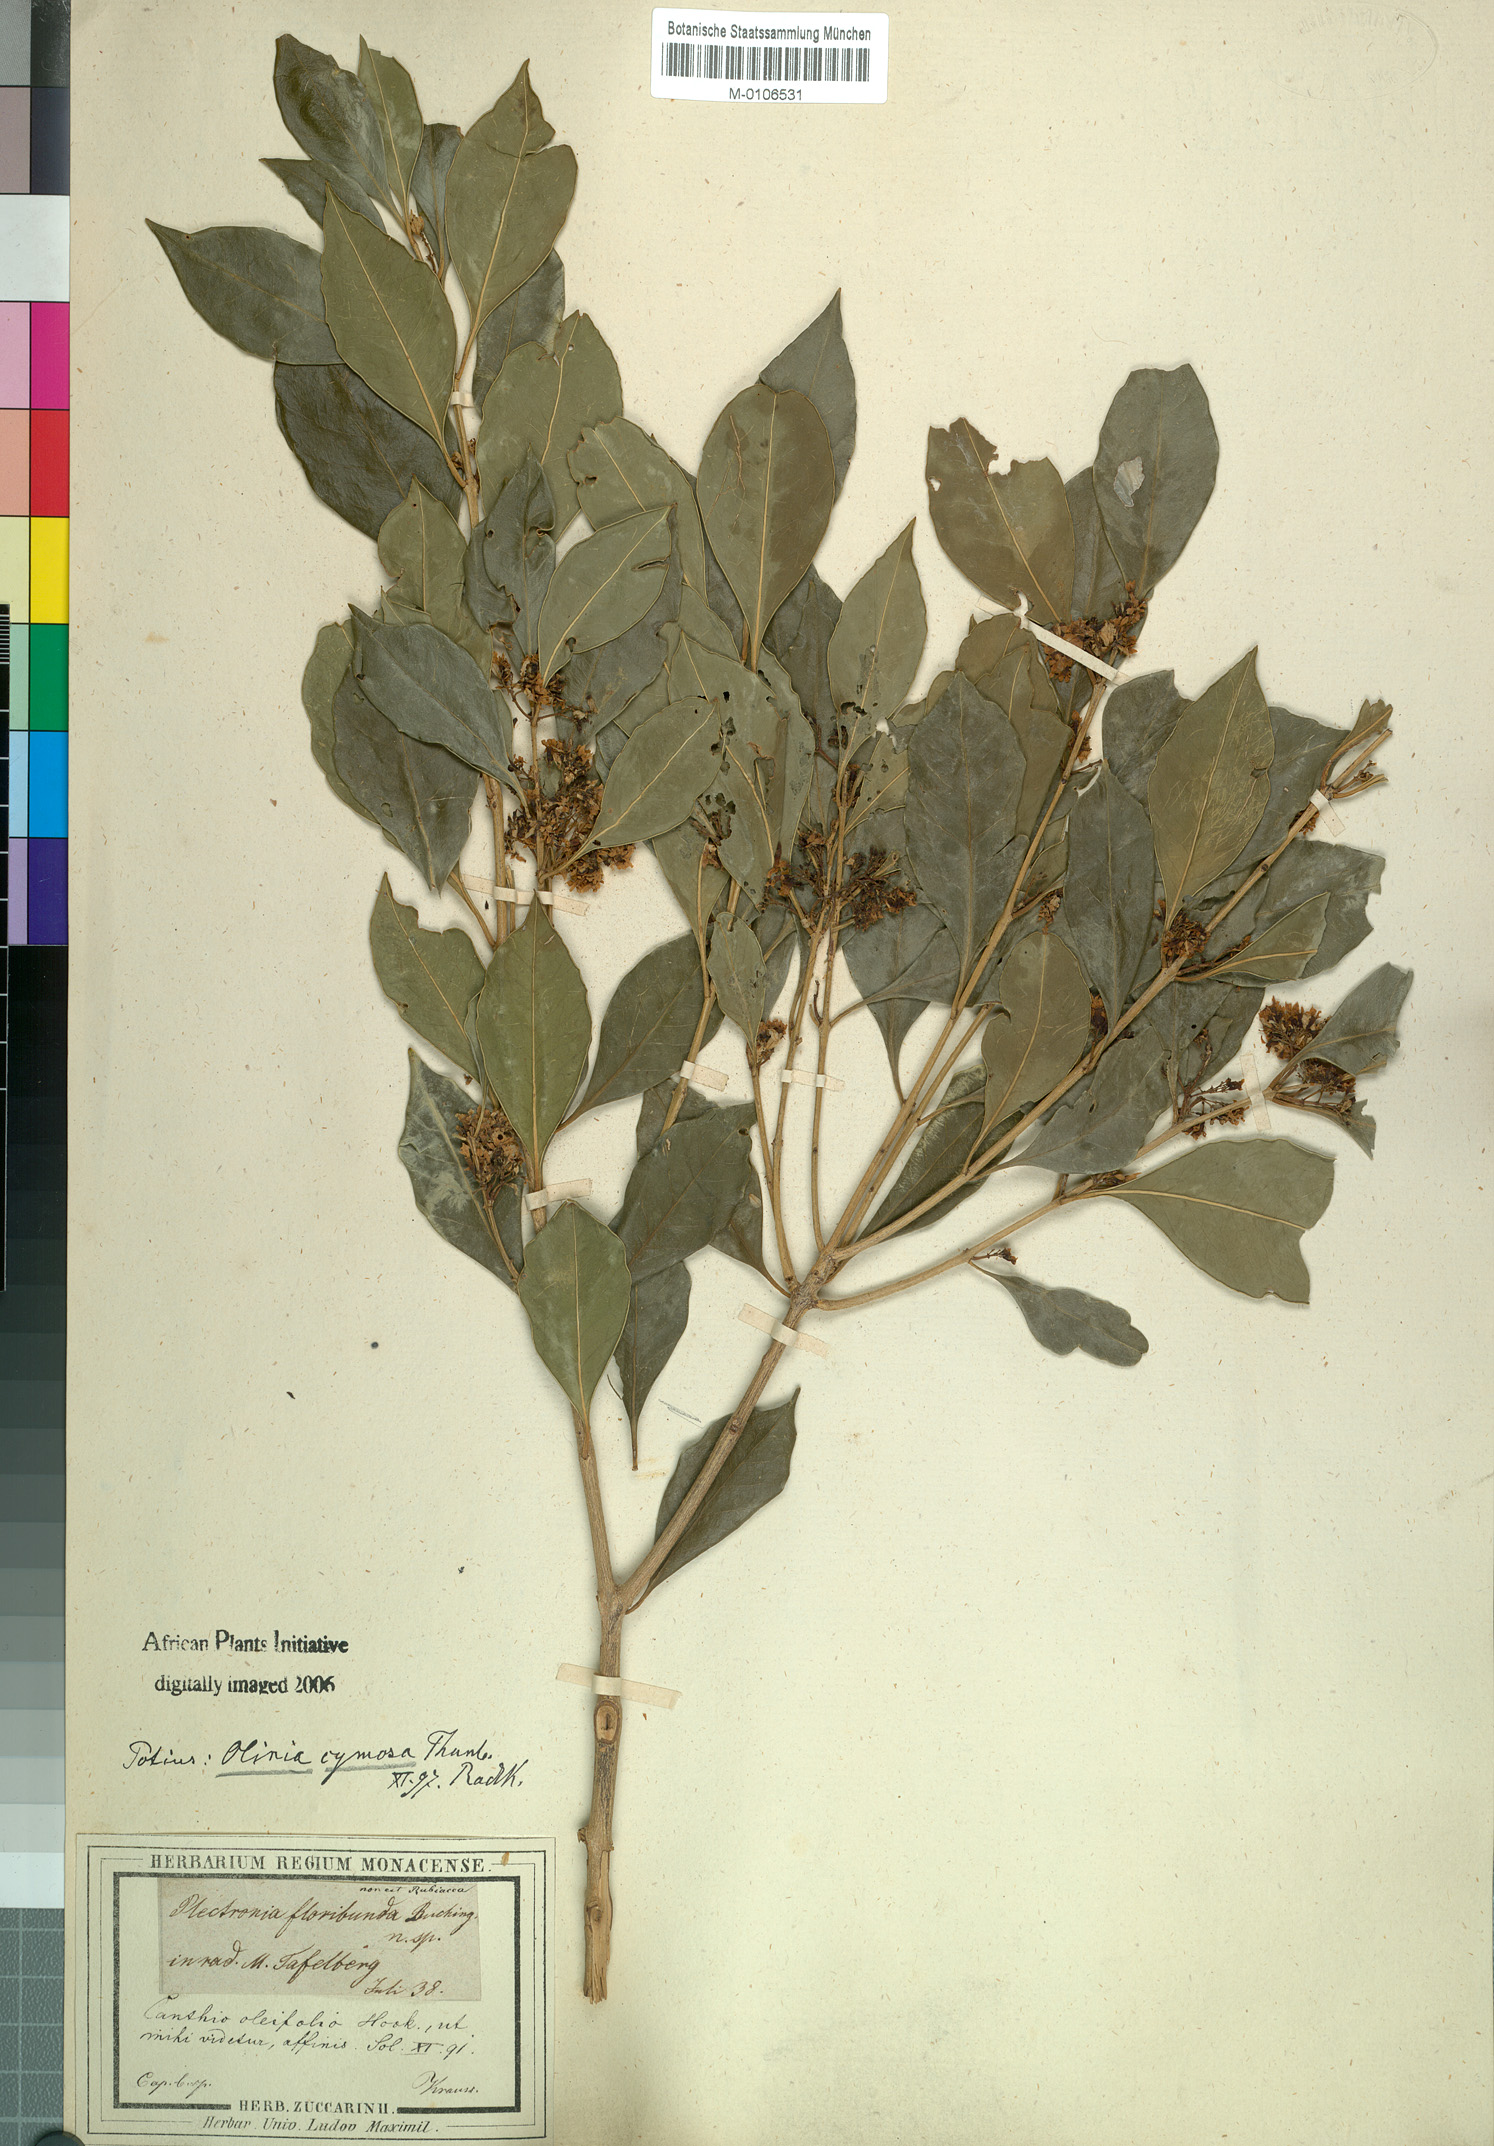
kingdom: Plantae
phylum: Tracheophyta
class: Magnoliopsida
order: Myrtales
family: Penaeaceae
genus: Olinia
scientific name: Olinia ventosa
